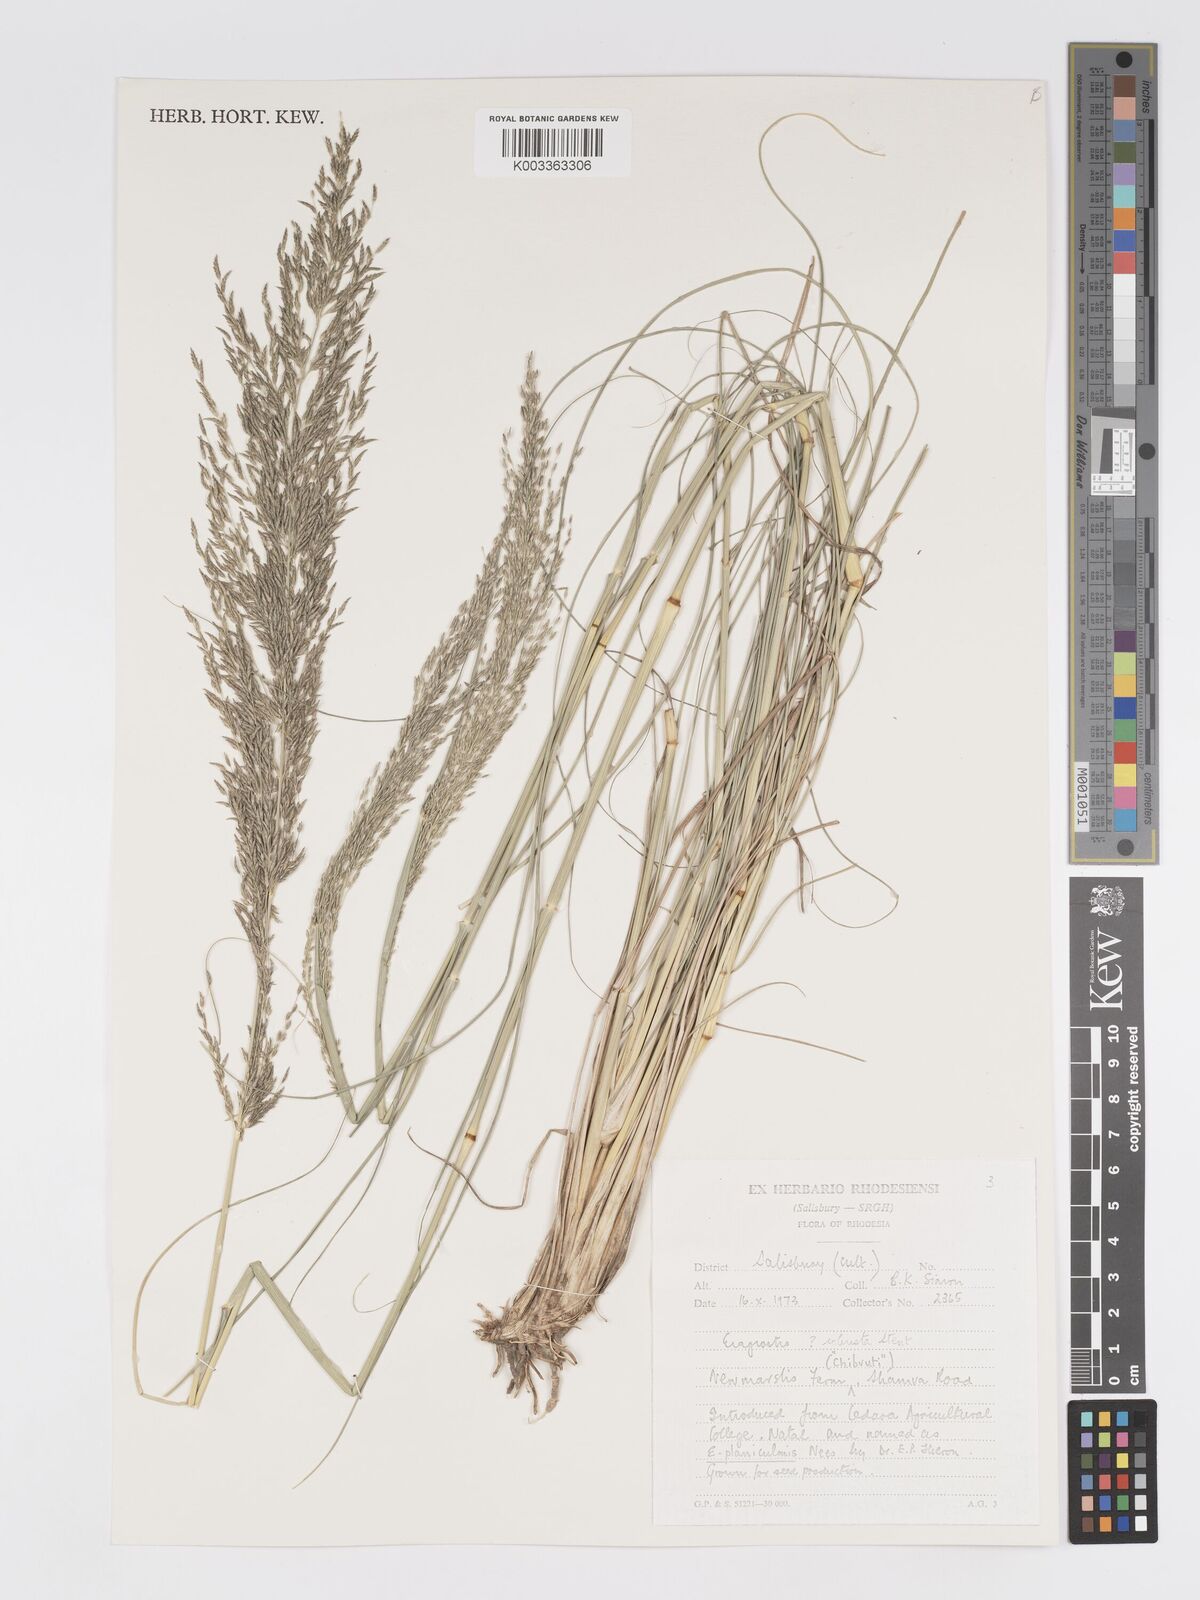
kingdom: Plantae
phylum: Tracheophyta
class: Liliopsida
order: Poales
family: Poaceae
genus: Eragrostis
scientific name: Eragrostis curvula
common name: African love-grass
